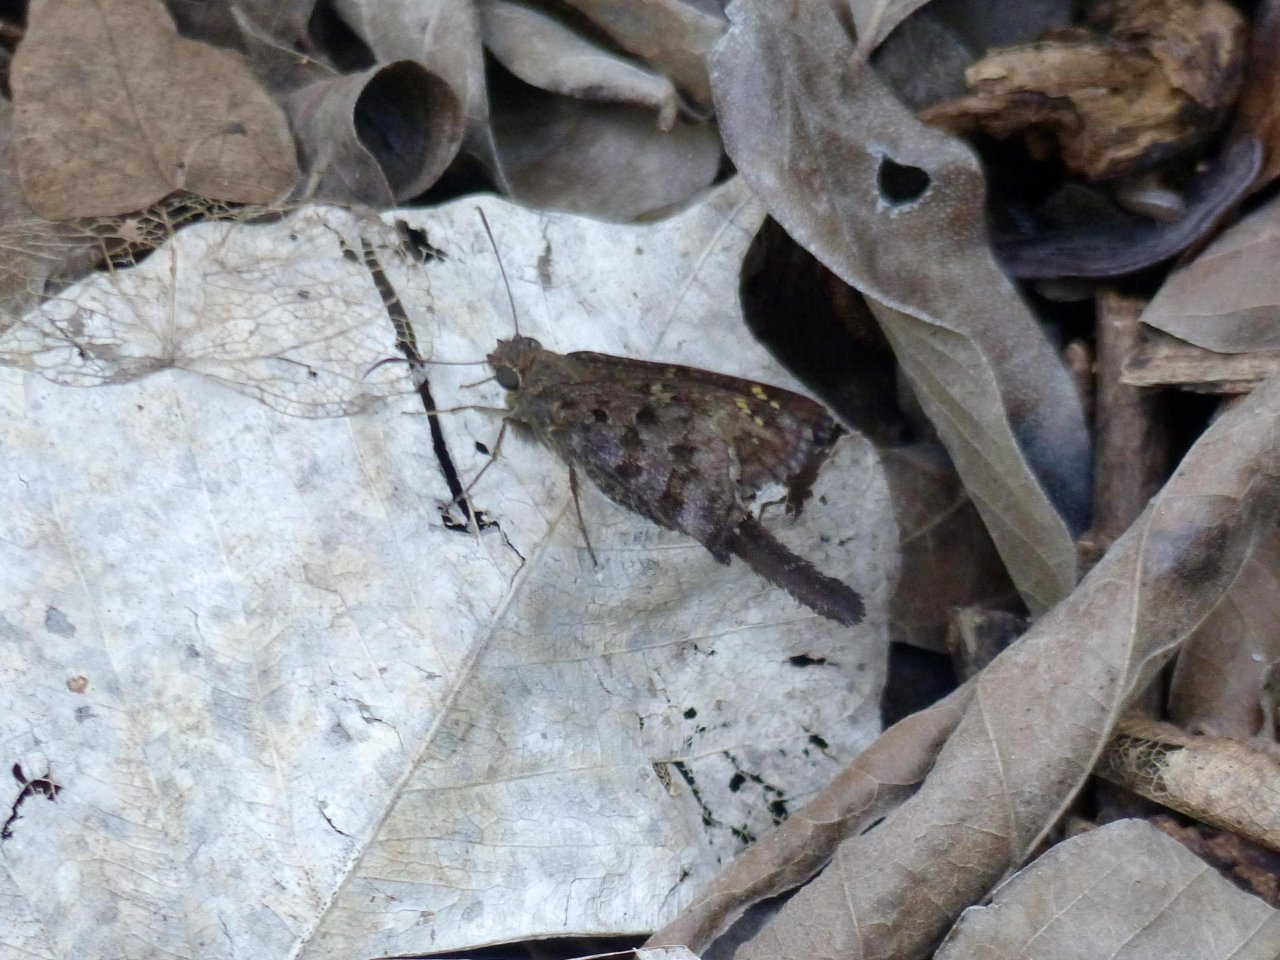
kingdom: Animalia
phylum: Arthropoda
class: Insecta
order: Lepidoptera
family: Hesperiidae
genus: Urbanus
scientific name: Urbanus dorantes
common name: Dorantes Longtail
